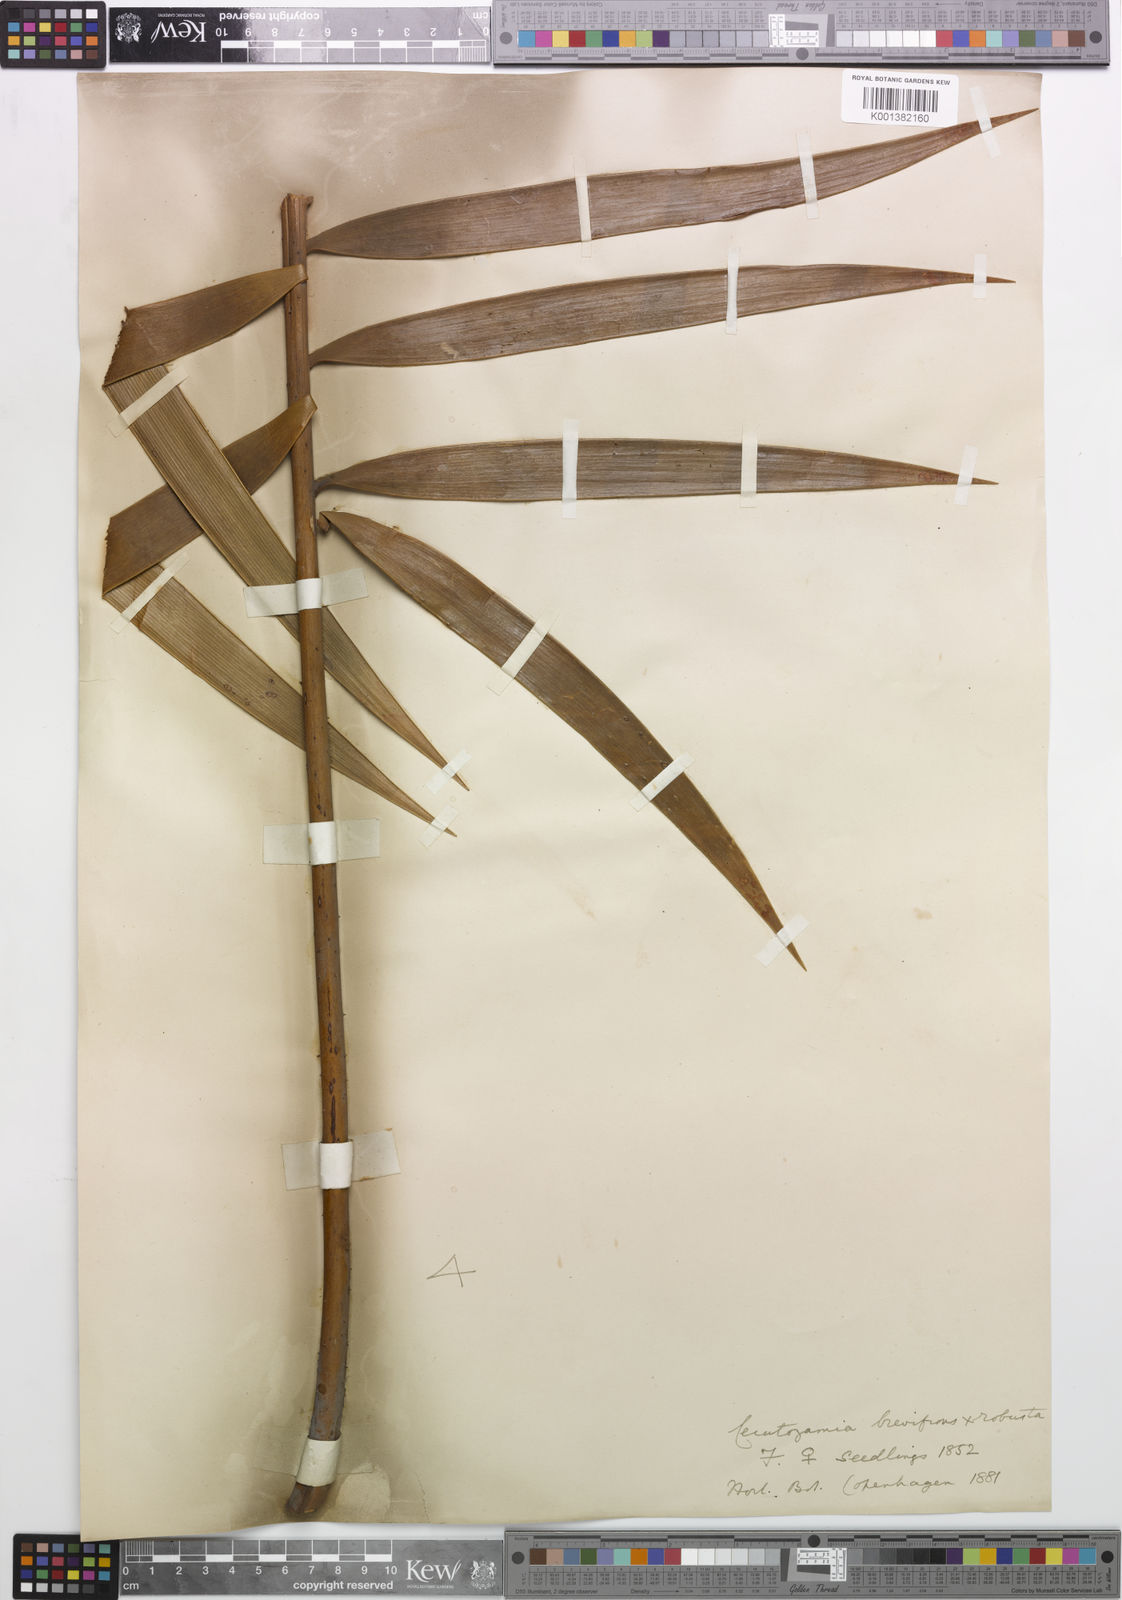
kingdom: Plantae
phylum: Tracheophyta
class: Cycadopsida
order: Cycadales
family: Zamiaceae
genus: Ceratozamia
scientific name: Ceratozamia brevifrons
